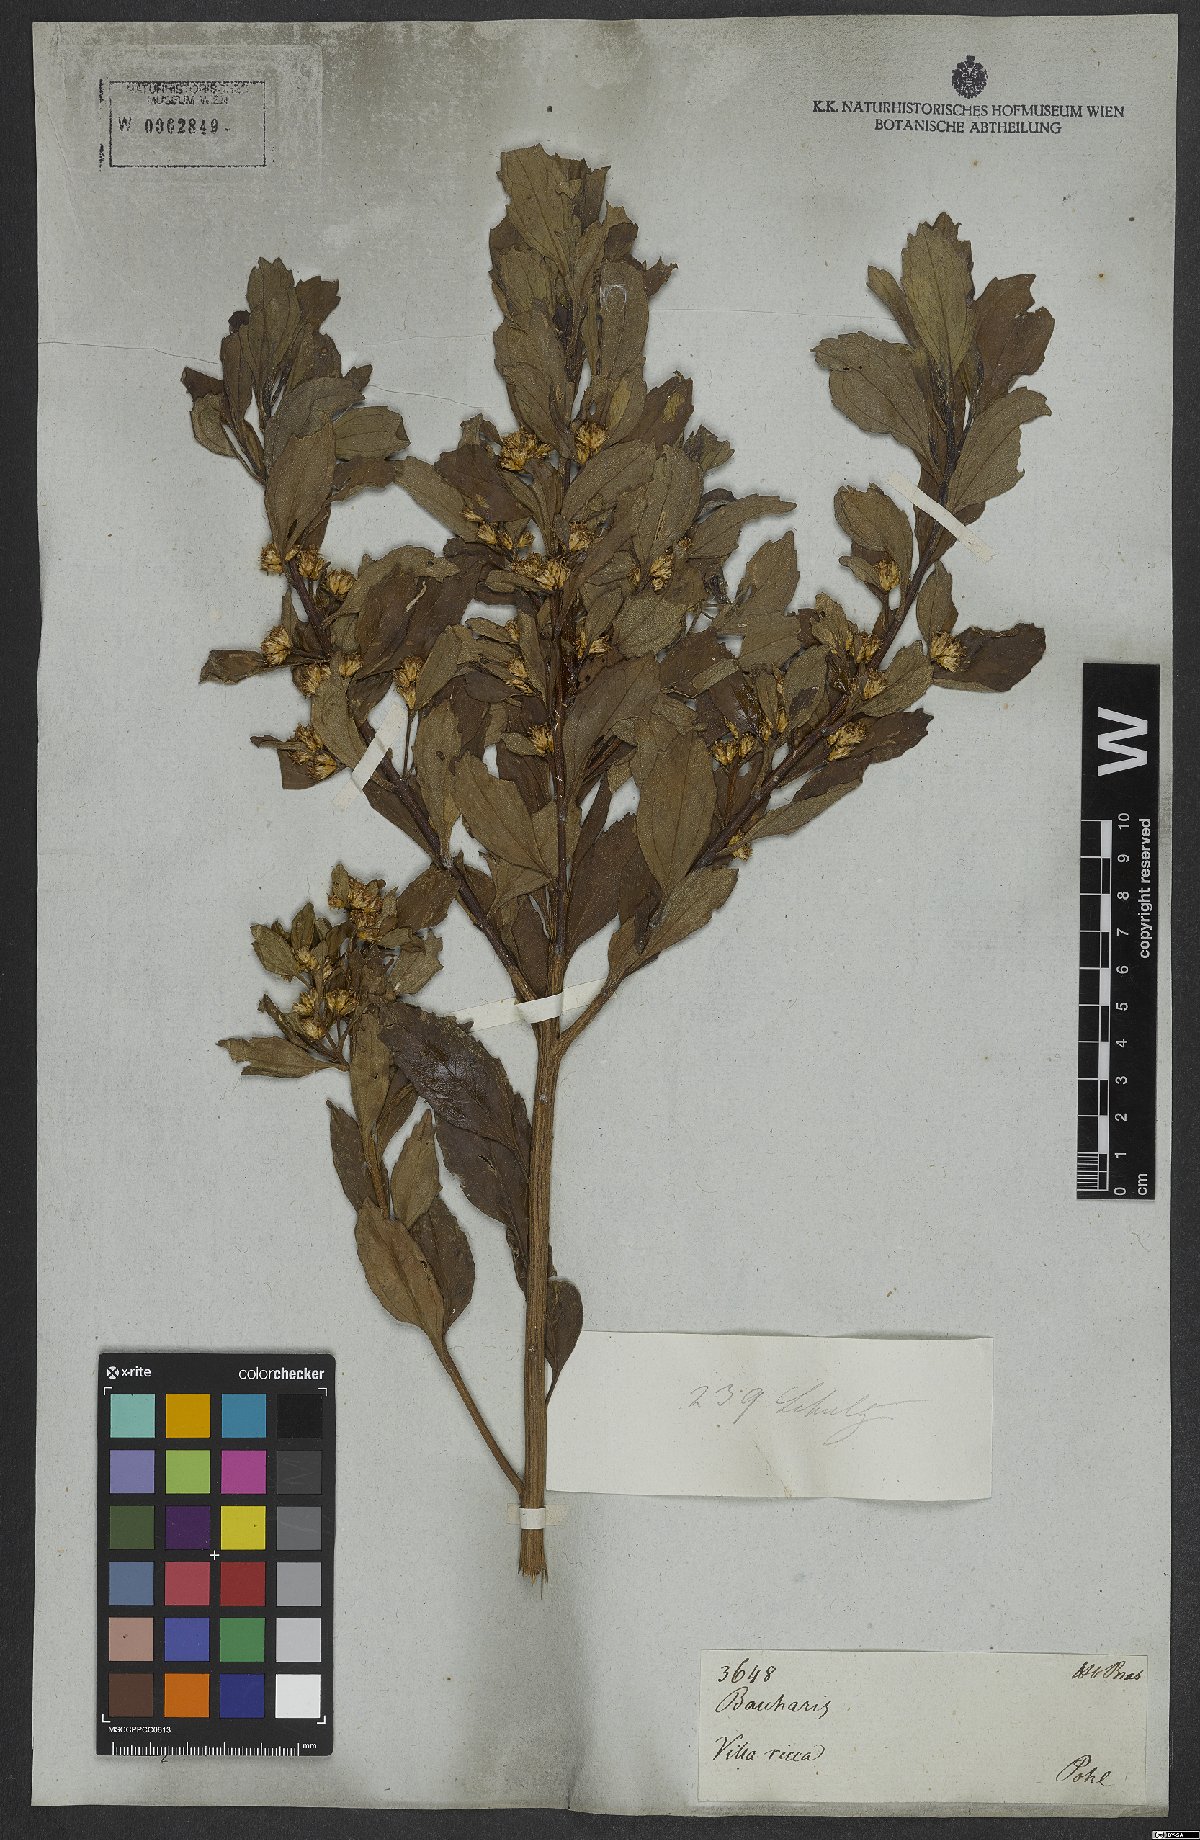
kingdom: Plantae
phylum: Tracheophyta
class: Magnoliopsida
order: Asterales
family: Asteraceae
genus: Baccharis
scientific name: Baccharis
